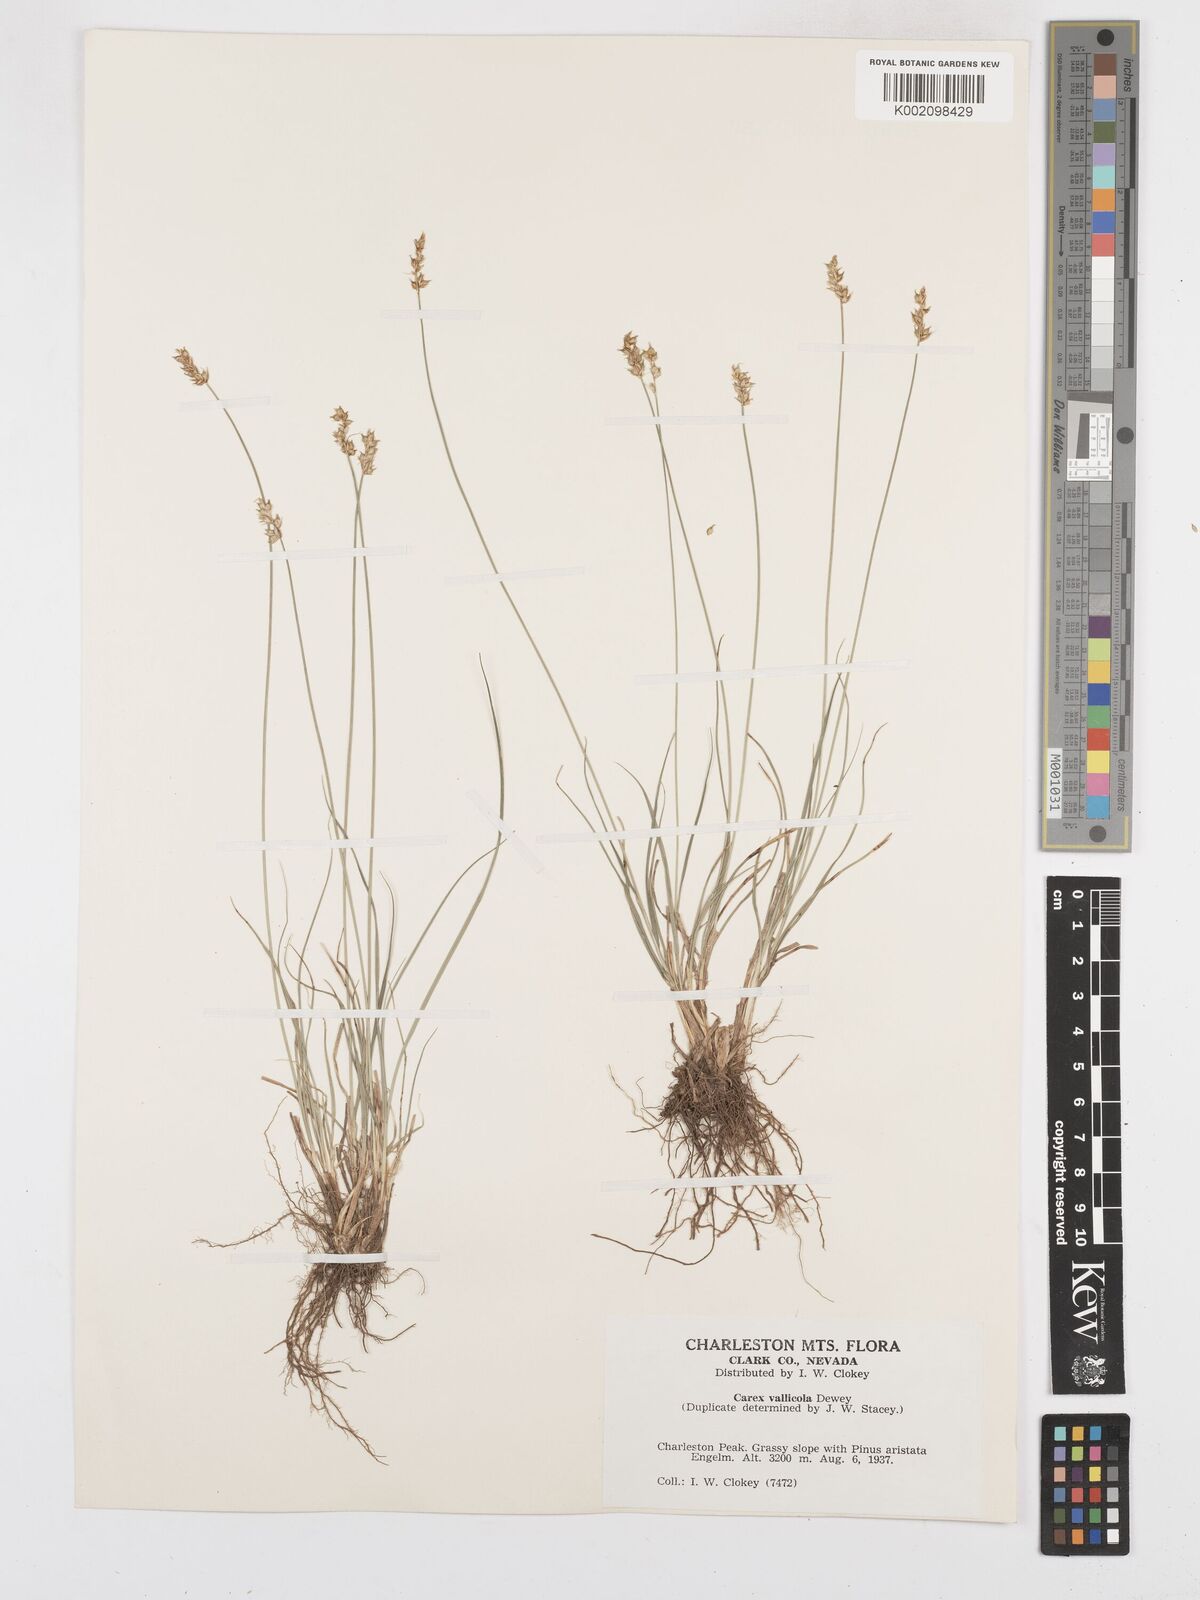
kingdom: Plantae
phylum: Tracheophyta
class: Liliopsida
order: Poales
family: Cyperaceae
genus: Carex
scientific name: Carex vallicola
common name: Valley sedge
